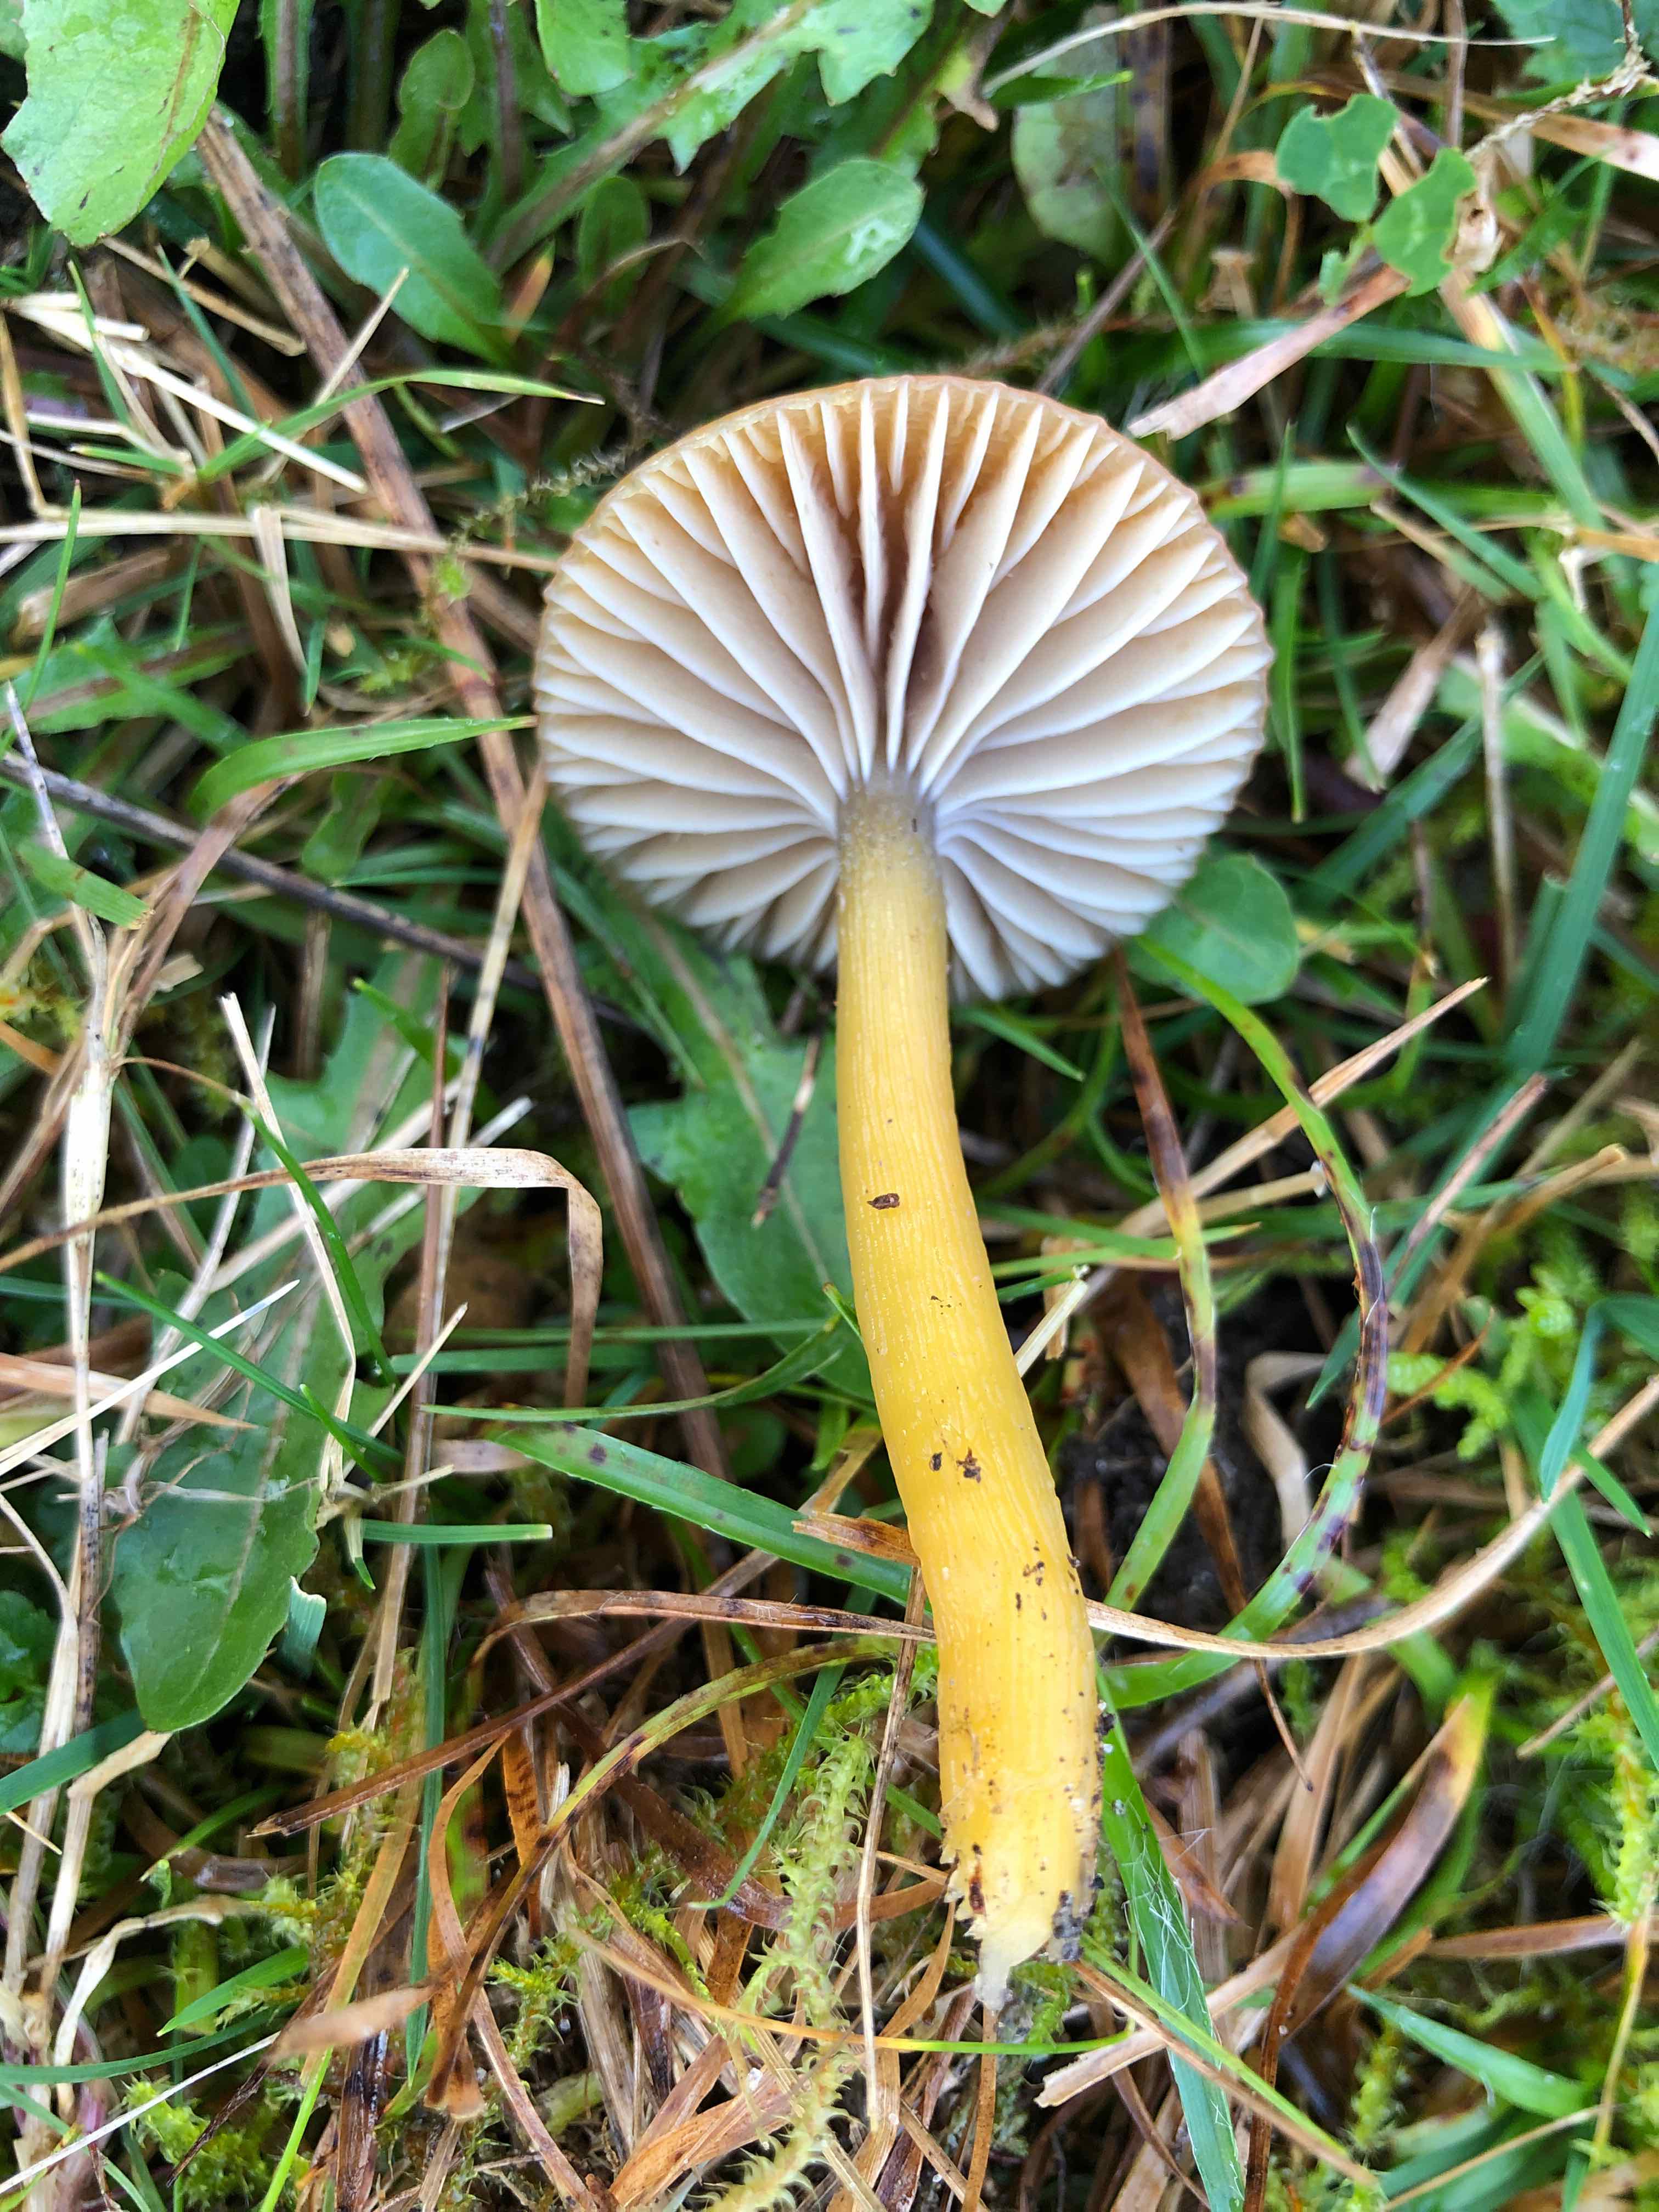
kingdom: Fungi
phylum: Basidiomycota
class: Agaricomycetes
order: Agaricales
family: Hygrophoraceae
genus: Gliophorus
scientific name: Gliophorus laetus
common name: brusk-vokshat
